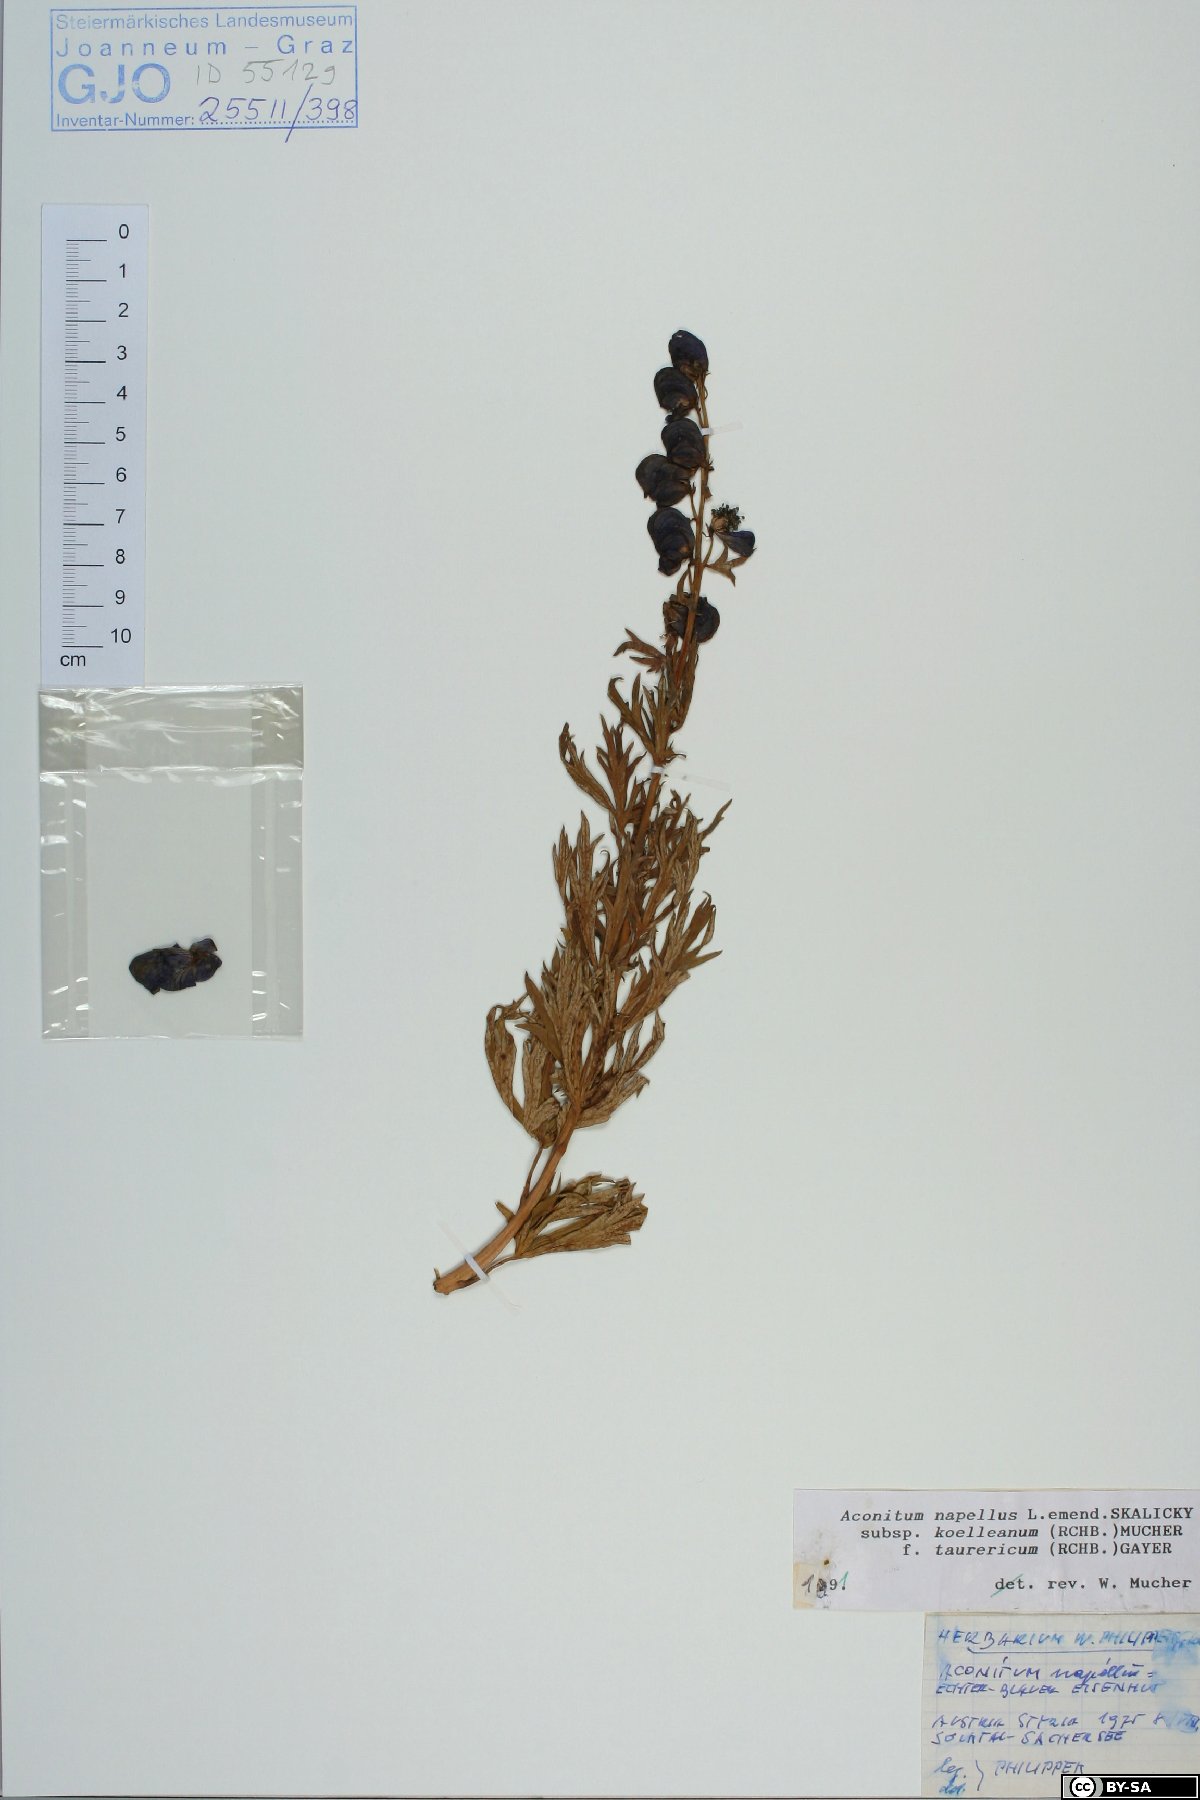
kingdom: Plantae
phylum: Tracheophyta
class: Magnoliopsida
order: Ranunculales
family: Ranunculaceae
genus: Aconitum
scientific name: Aconitum tauricum
